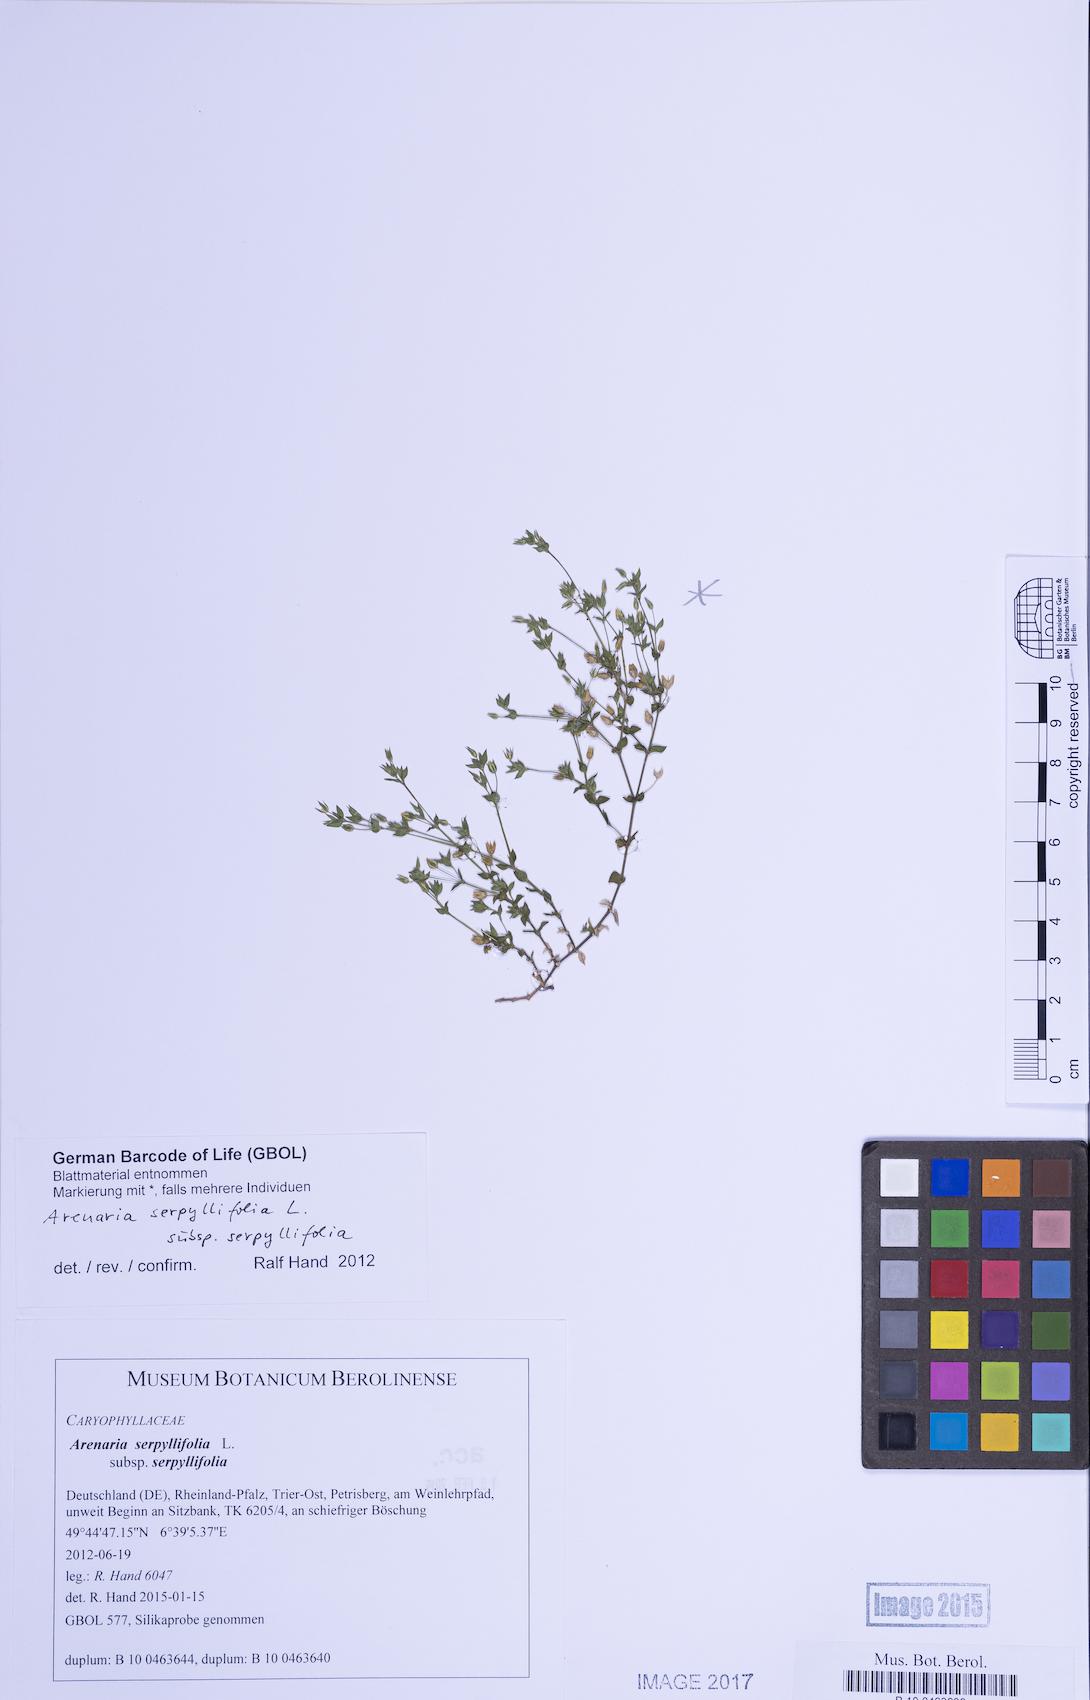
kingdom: Plantae
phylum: Tracheophyta
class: Magnoliopsida
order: Caryophyllales
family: Caryophyllaceae
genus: Arenaria
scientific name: Arenaria serpyllifolia
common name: Thyme-leaved sandwort
